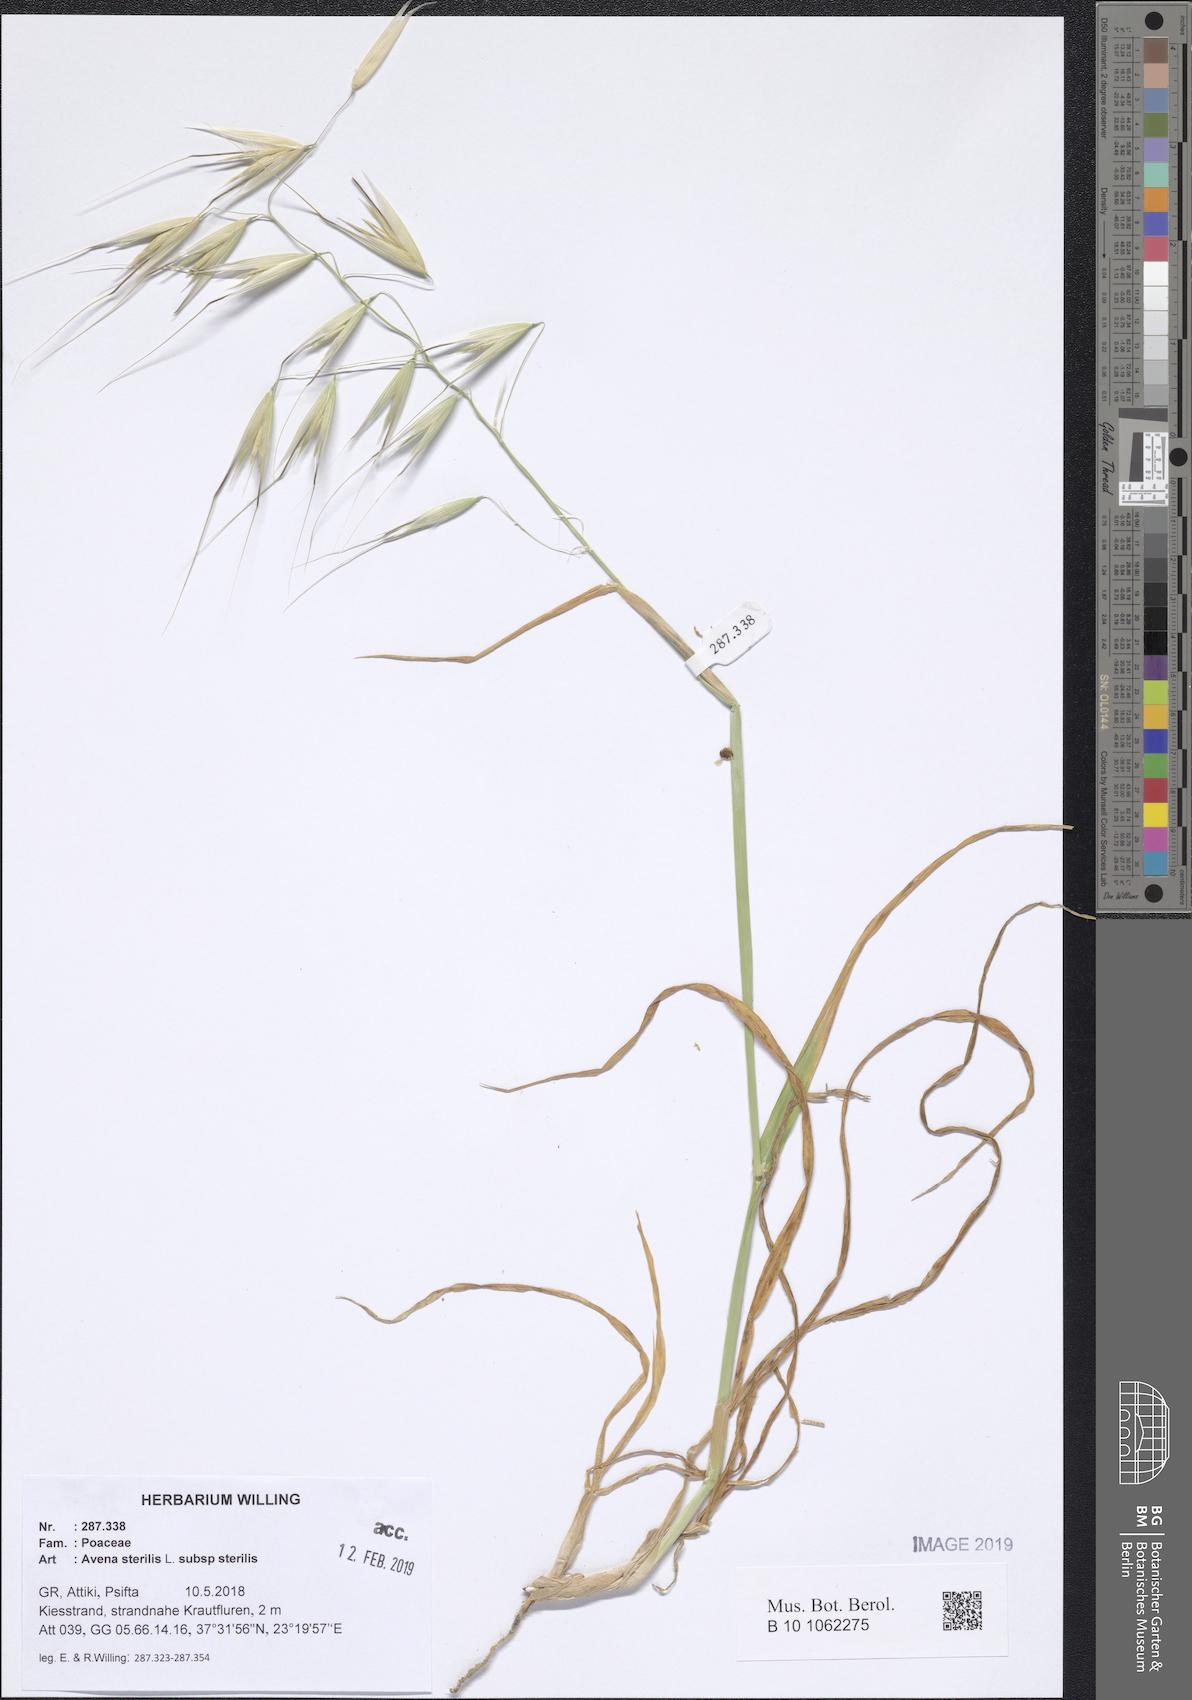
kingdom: Plantae
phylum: Tracheophyta
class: Liliopsida
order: Poales
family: Poaceae
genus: Avena
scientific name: Avena sterilis
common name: Animated oat
